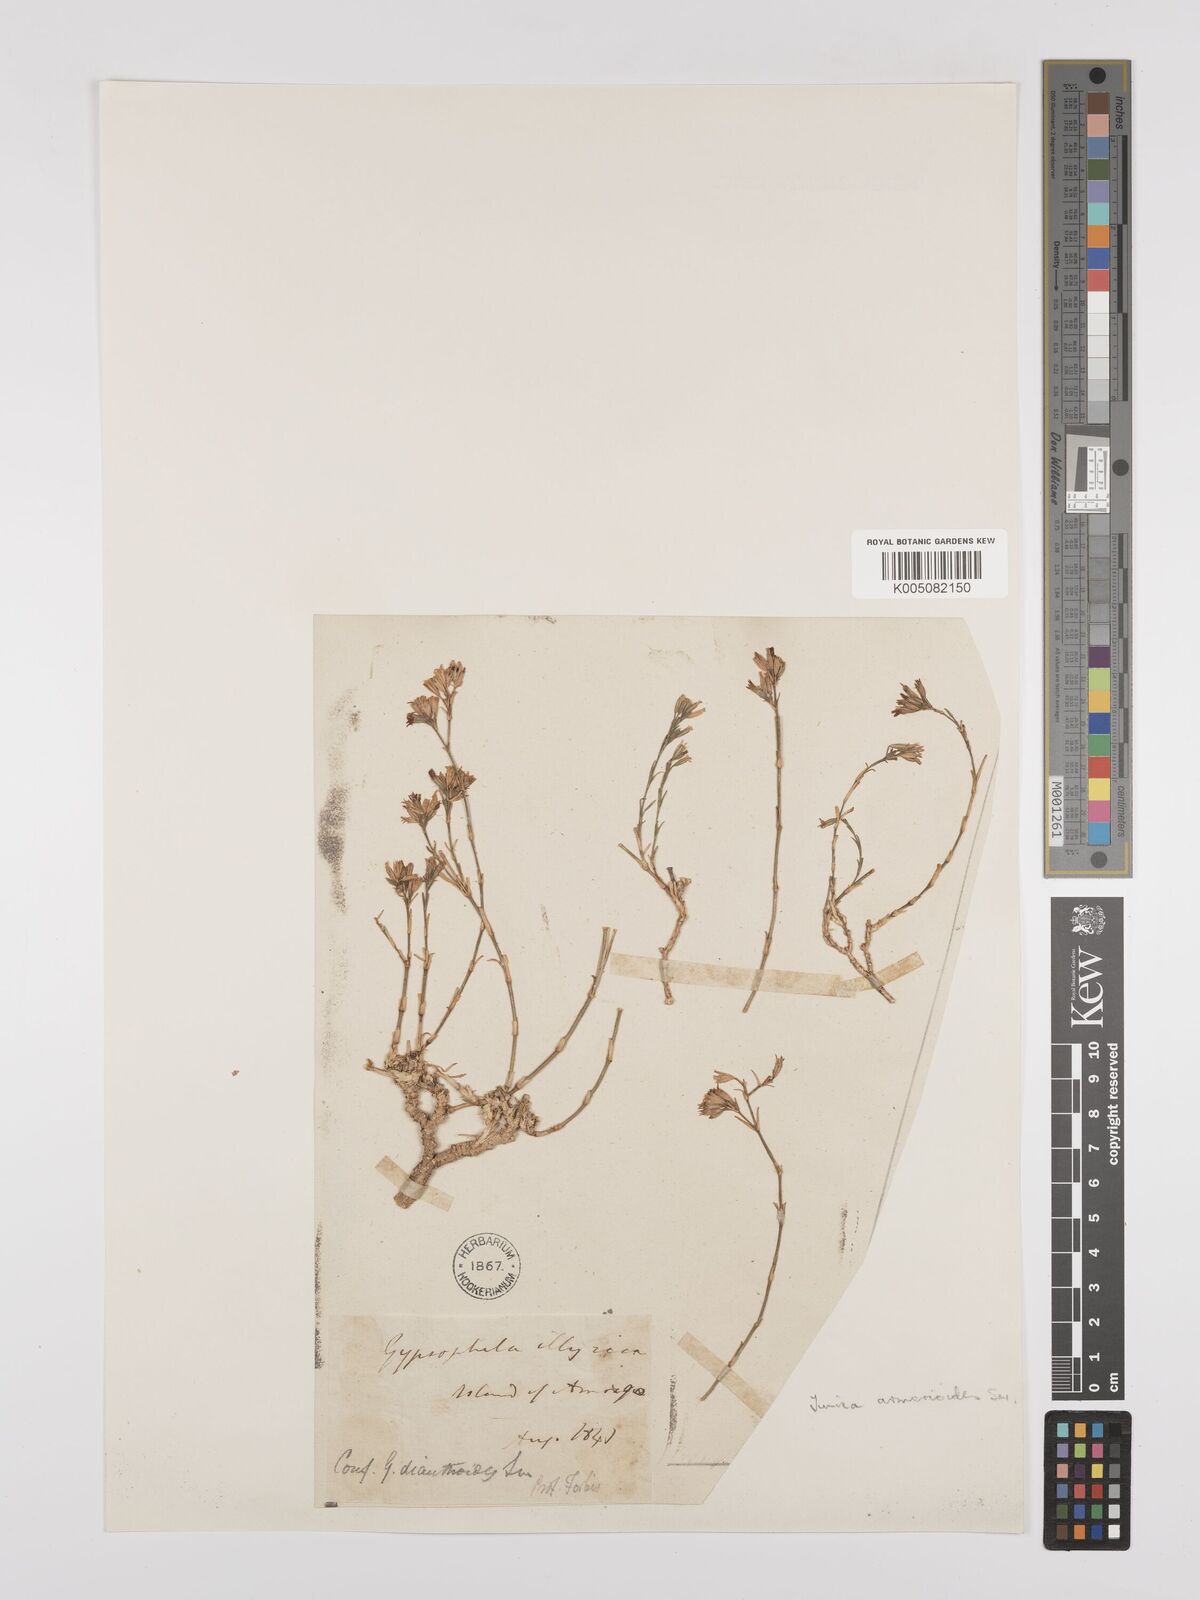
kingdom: Plantae
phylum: Tracheophyta
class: Magnoliopsida
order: Caryophyllales
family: Caryophyllaceae
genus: Dianthus
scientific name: Dianthus tunicoides
